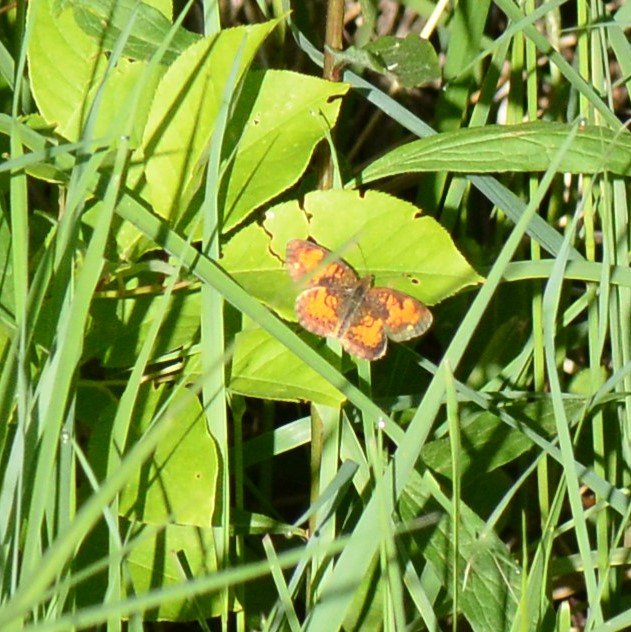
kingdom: Animalia
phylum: Arthropoda
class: Insecta
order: Lepidoptera
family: Nymphalidae
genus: Phyciodes
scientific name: Phyciodes tharos
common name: Northern Crescent
